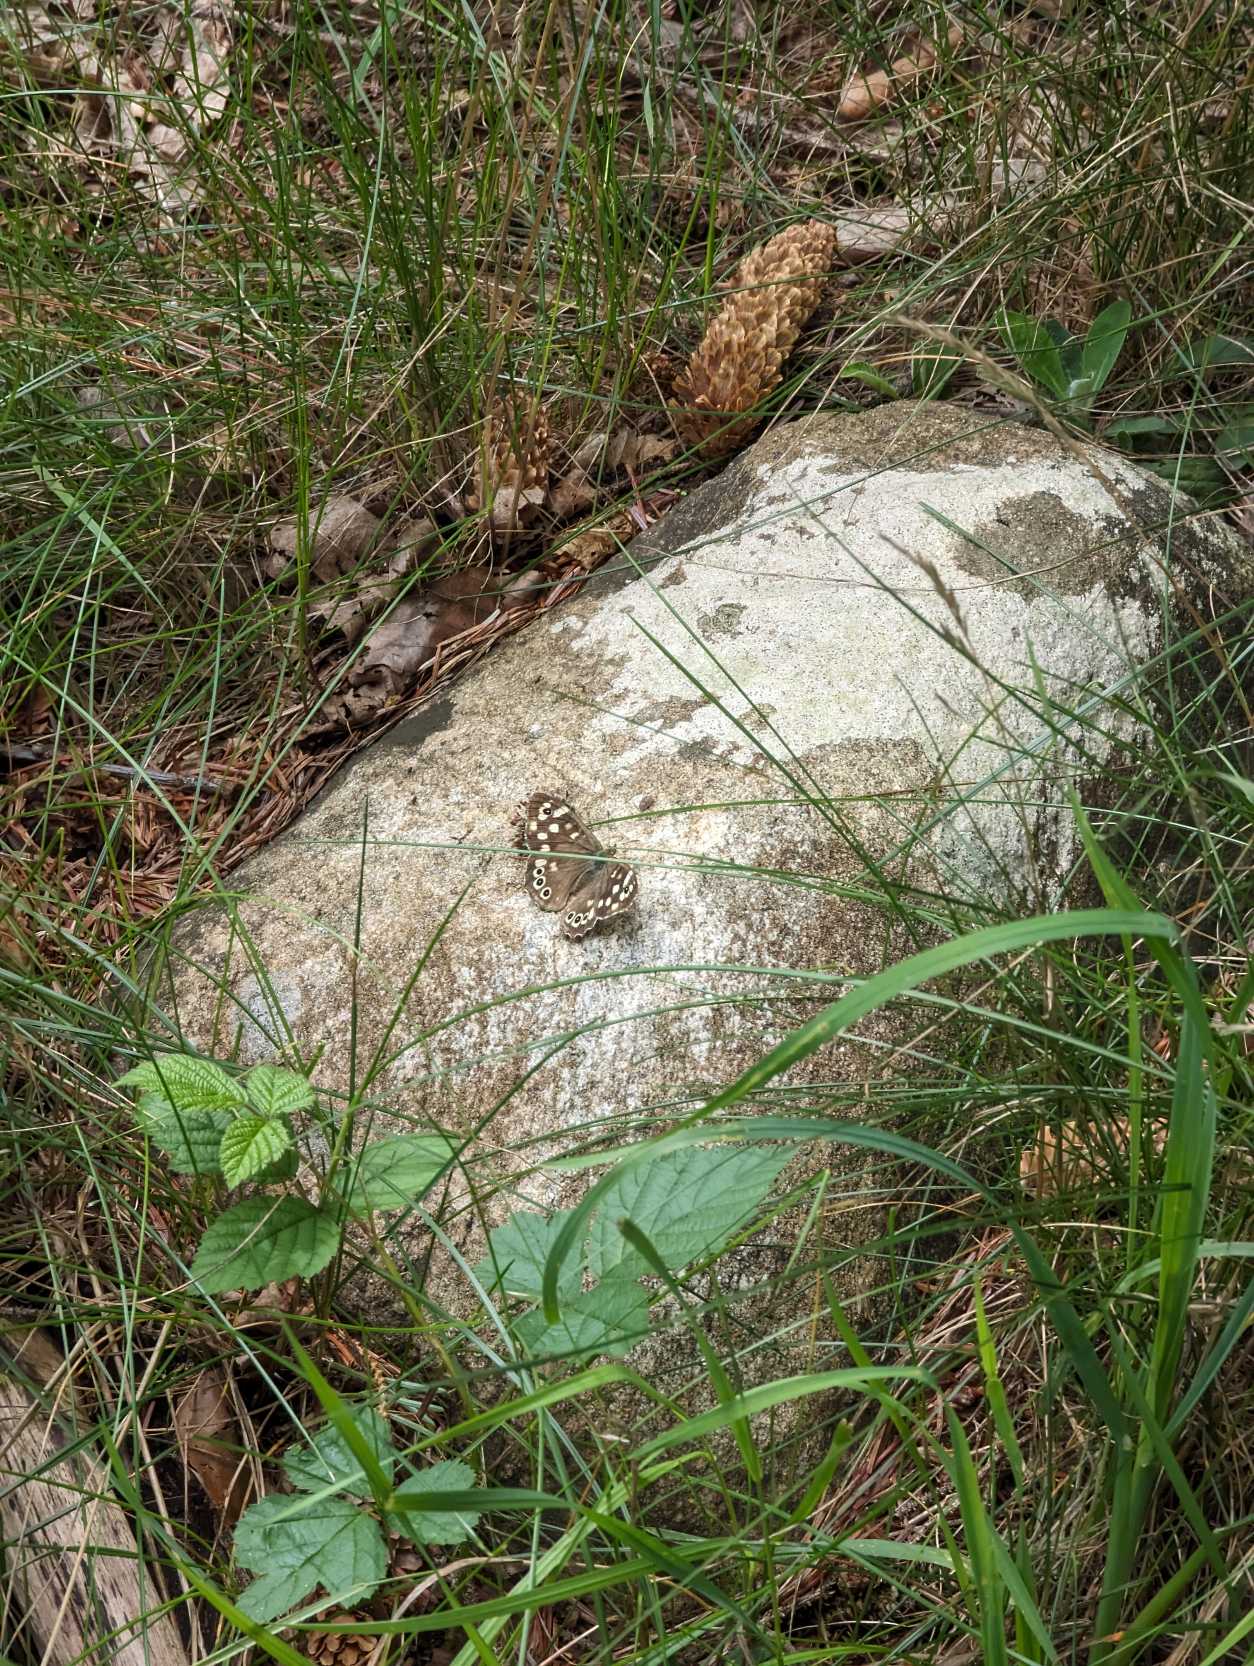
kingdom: Animalia
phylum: Arthropoda
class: Insecta
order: Lepidoptera
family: Nymphalidae
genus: Pararge
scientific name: Pararge aegeria
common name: Skovrandøje
